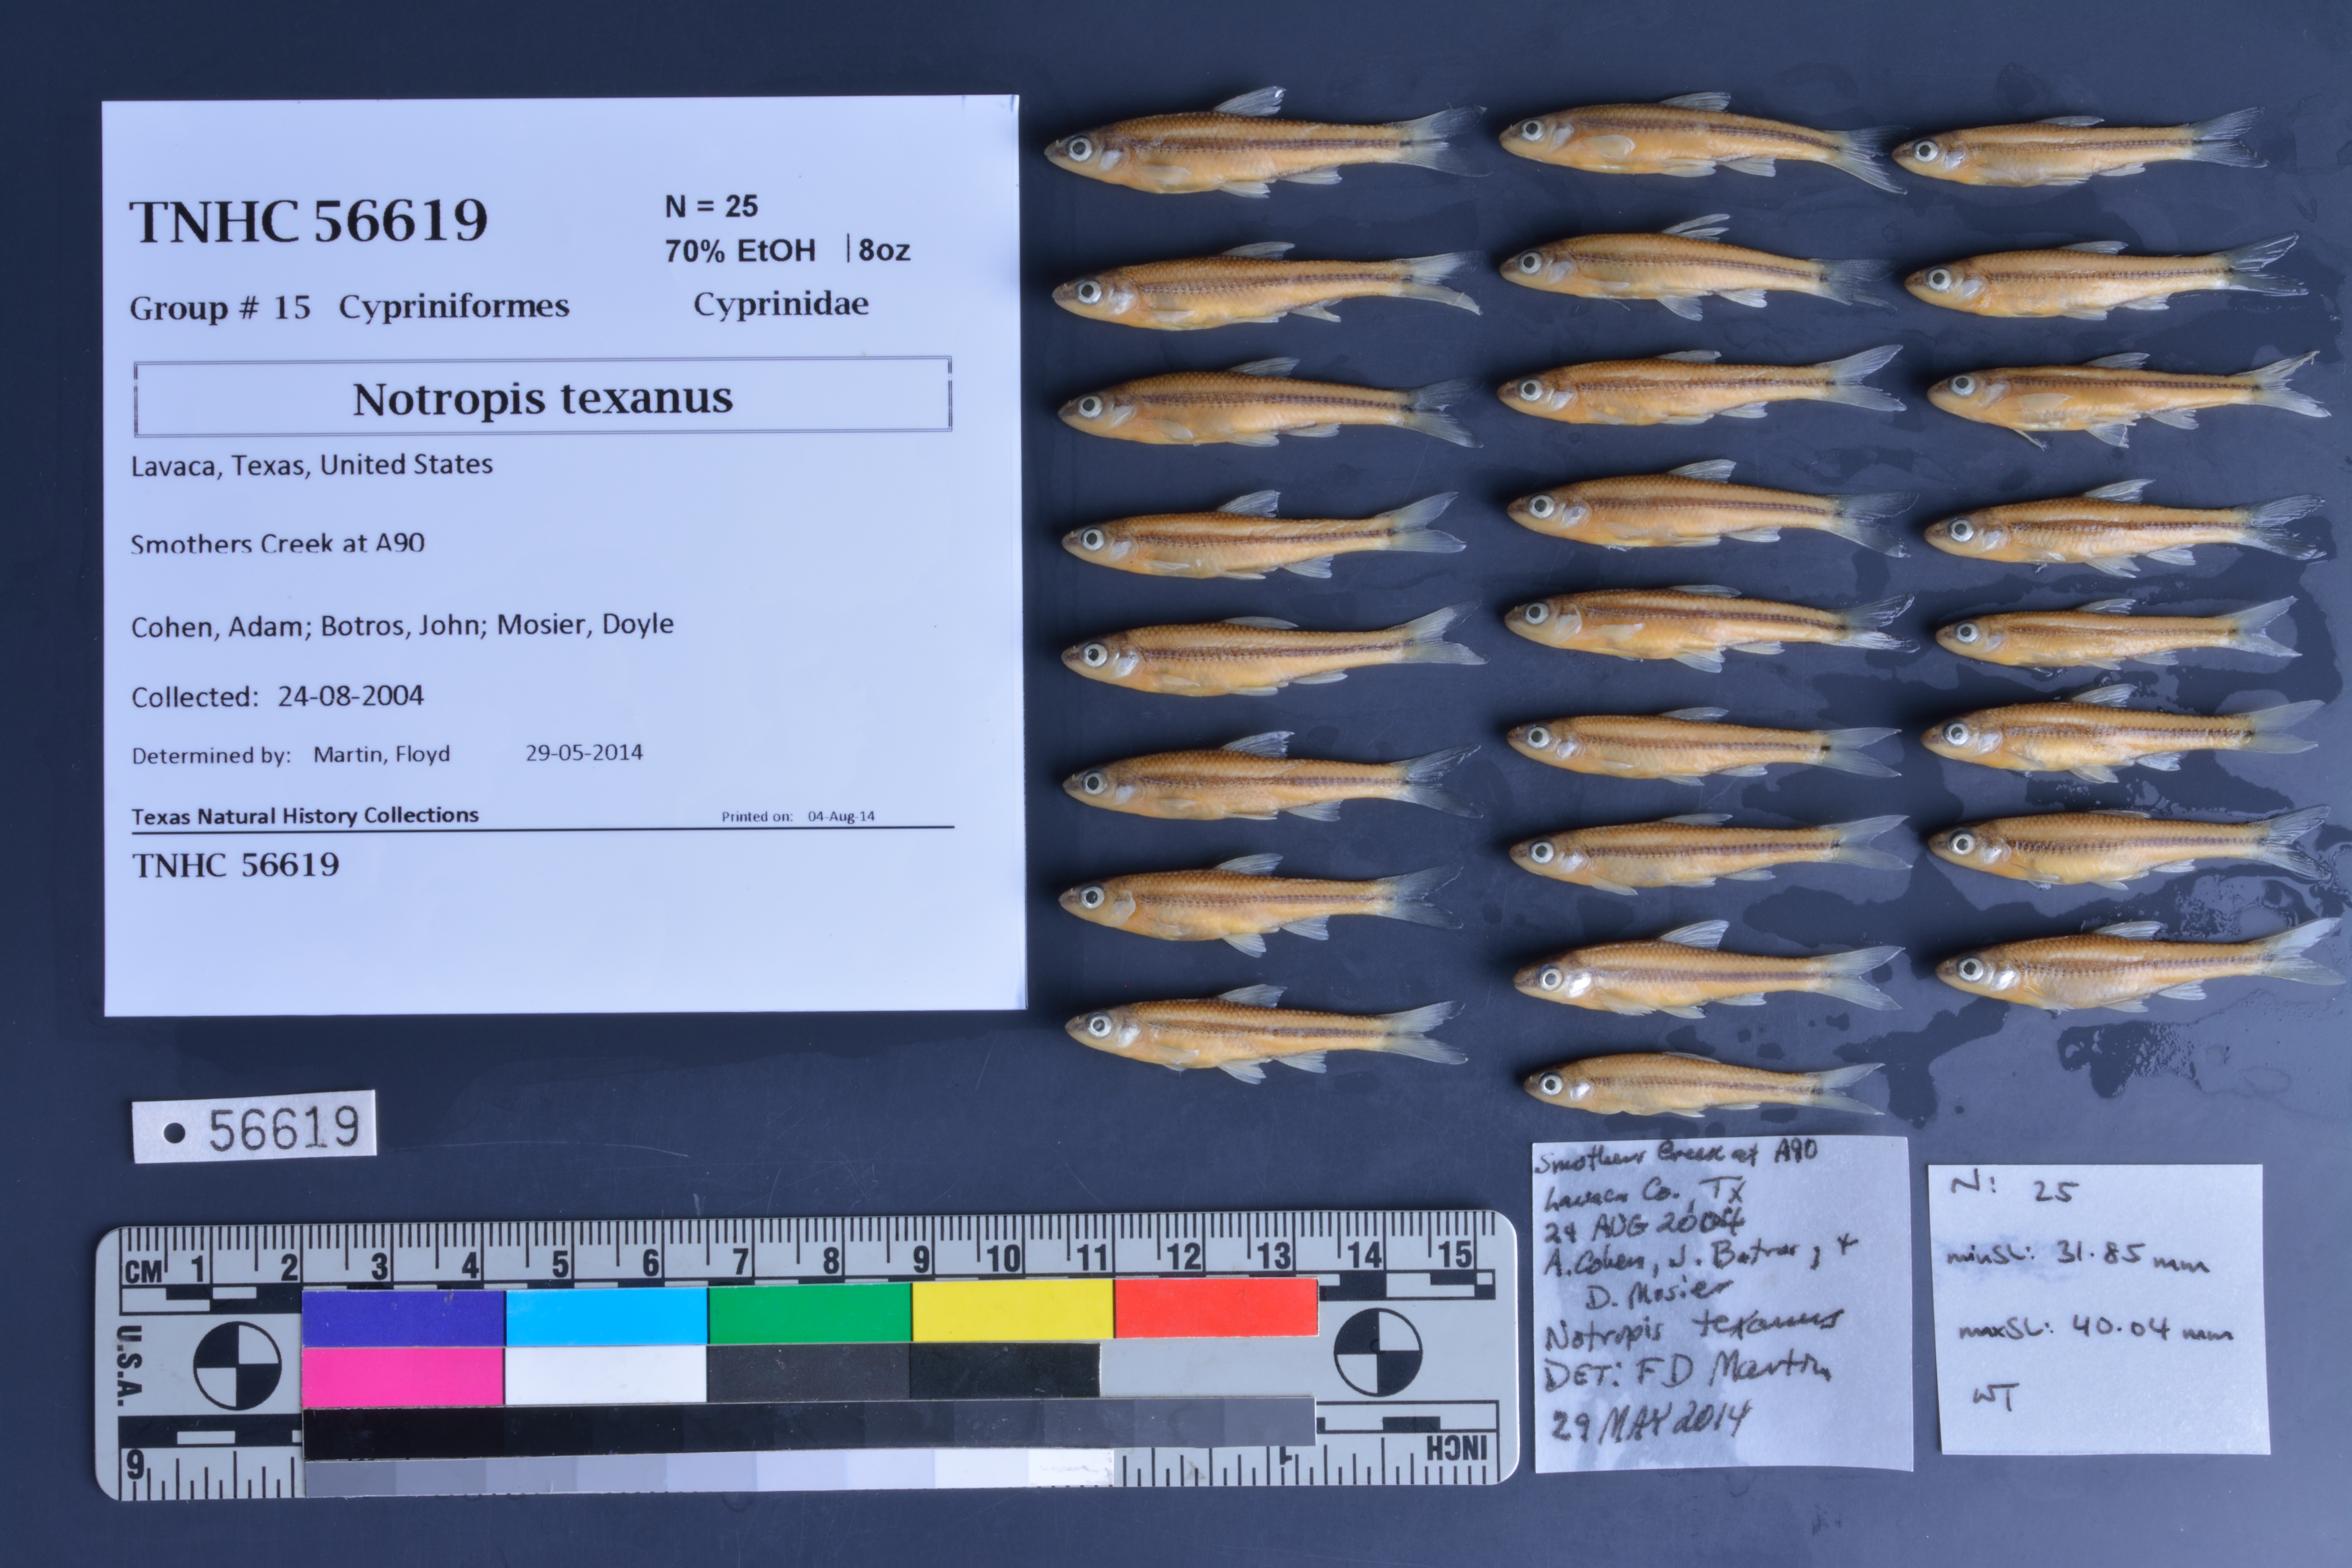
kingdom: Animalia
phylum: Chordata
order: Cypriniformes
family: Cyprinidae
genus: Notropis
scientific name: Notropis texanus
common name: Weed shiner
